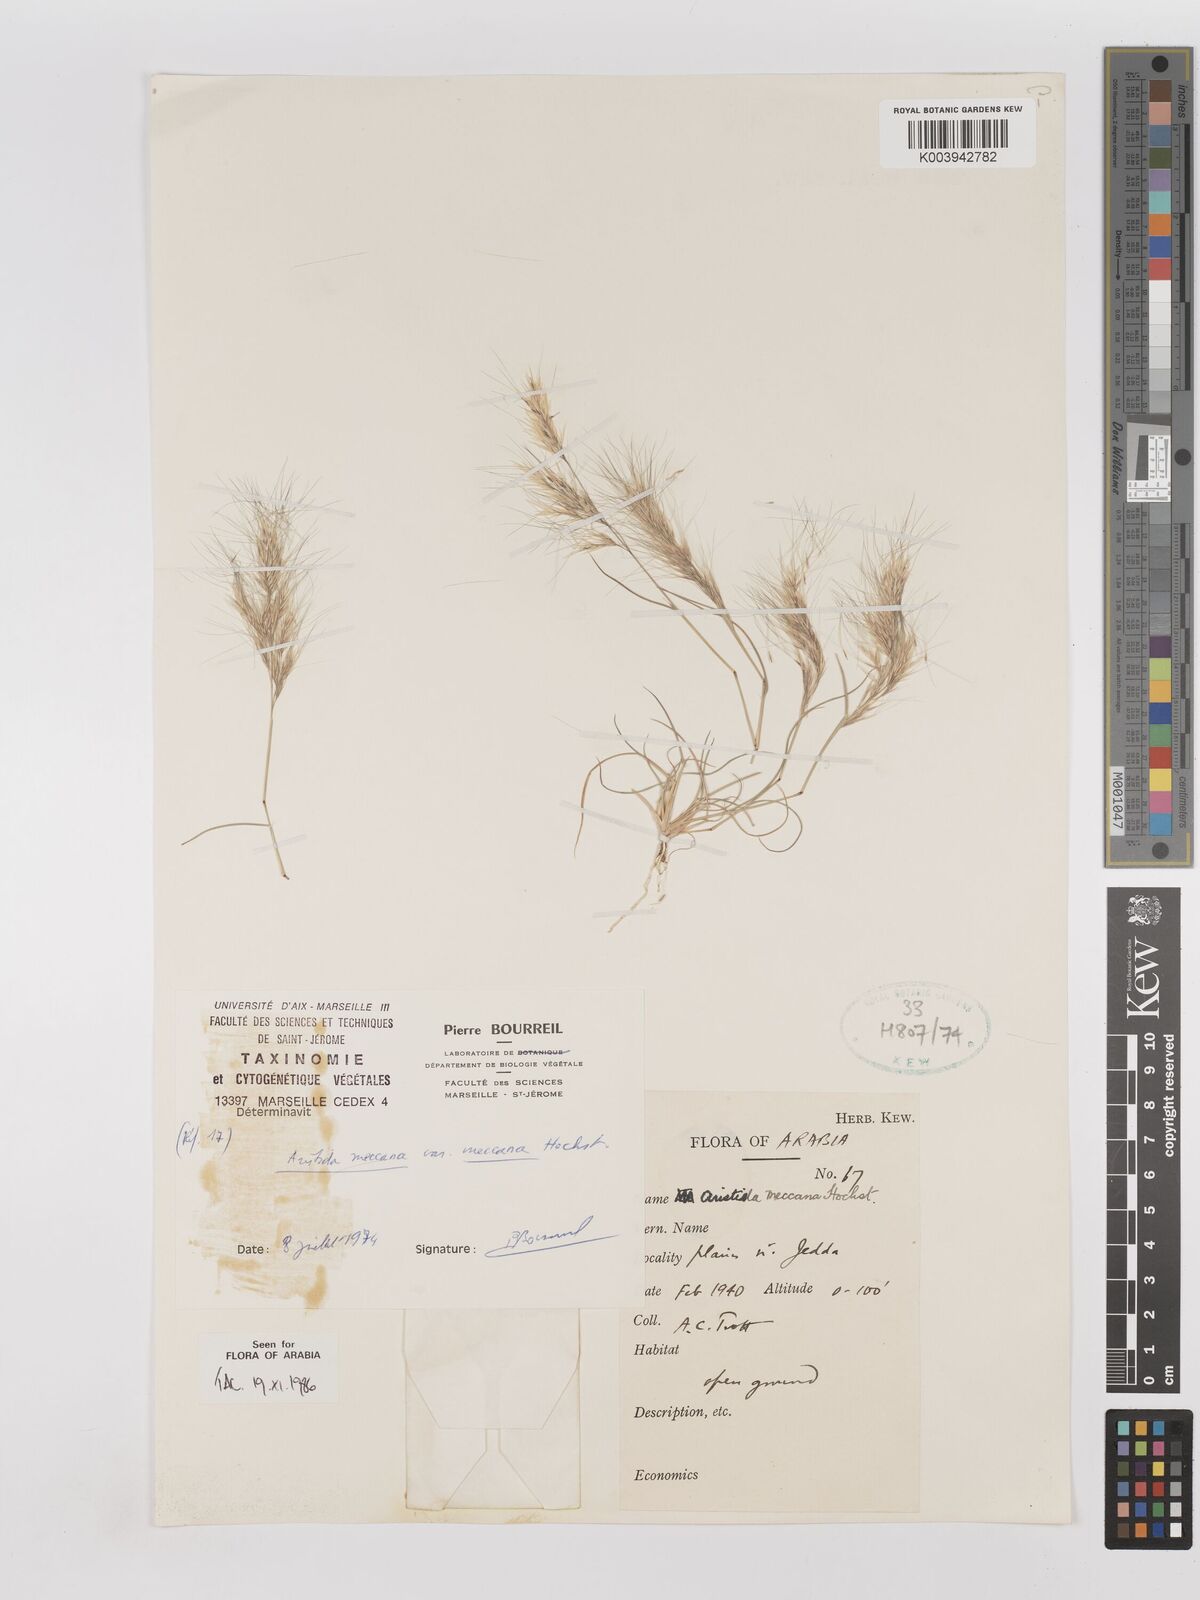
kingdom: Plantae
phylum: Tracheophyta
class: Liliopsida
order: Poales
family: Poaceae
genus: Aristida
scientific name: Aristida mutabilis
